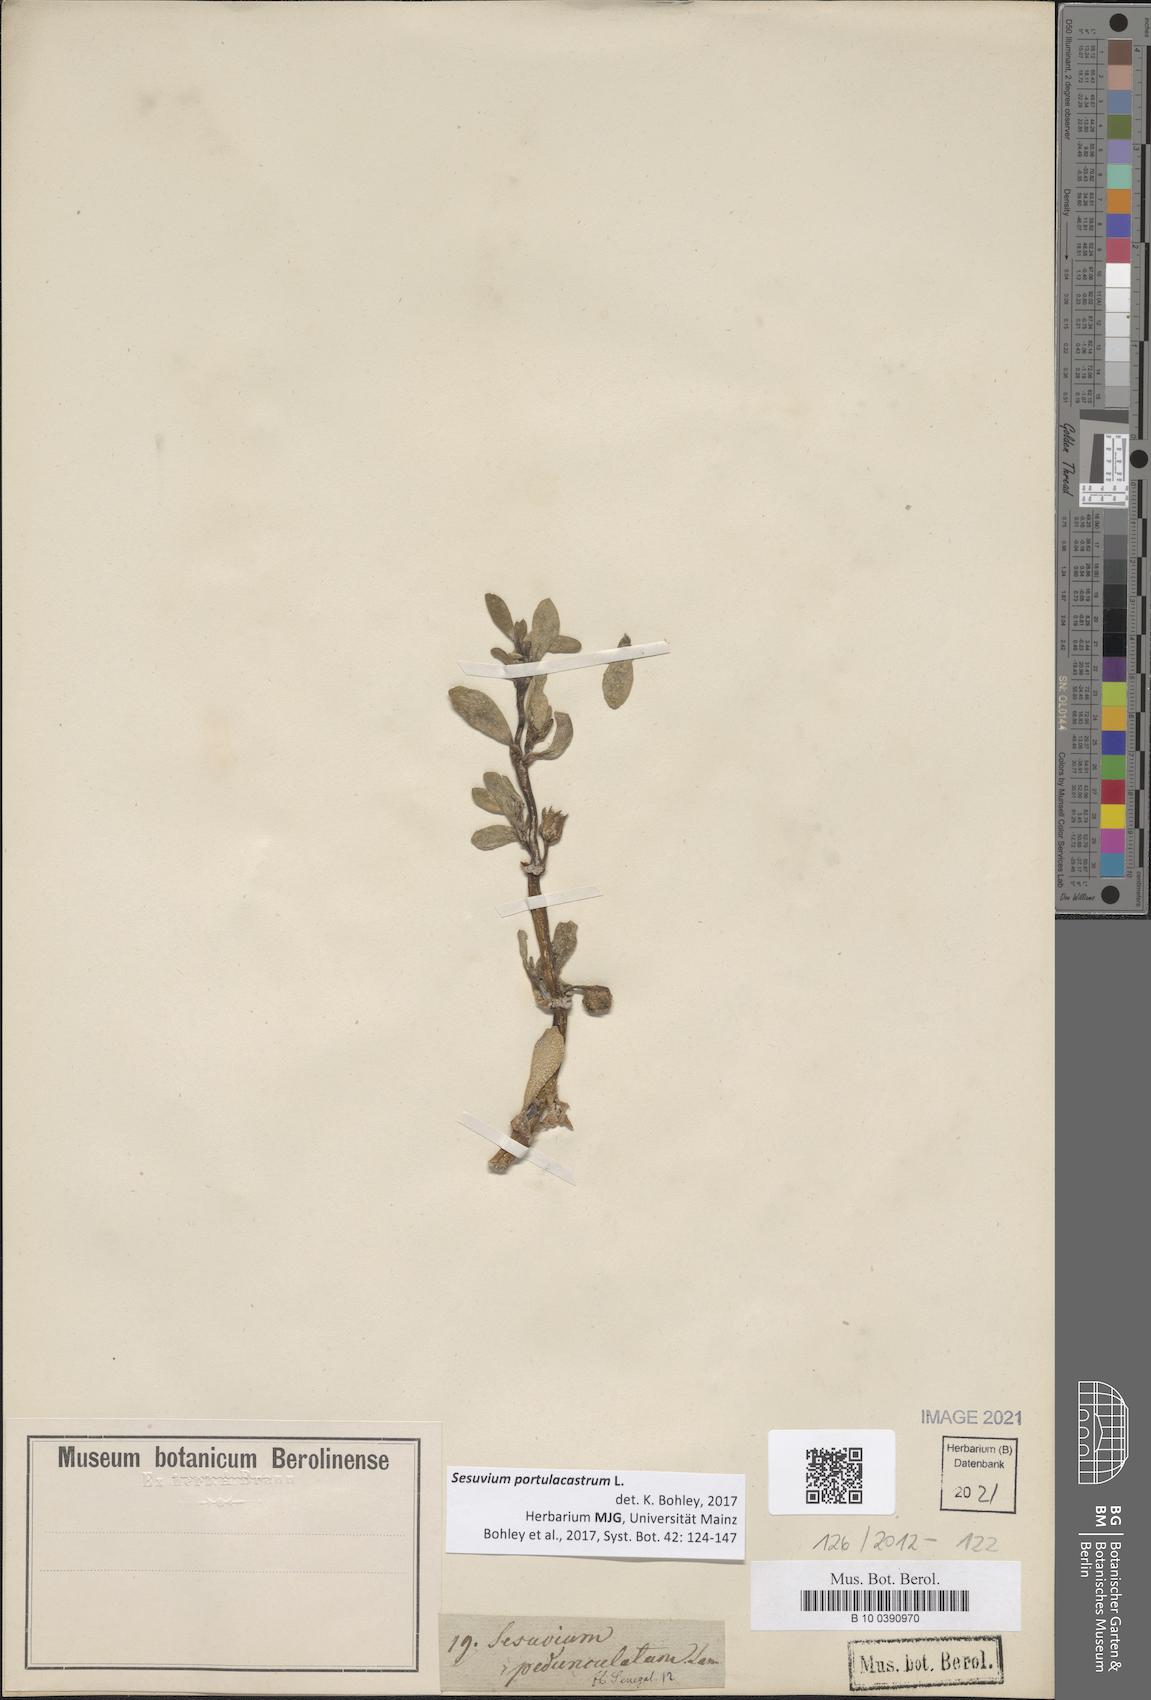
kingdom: Plantae
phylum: Tracheophyta
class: Magnoliopsida
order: Caryophyllales
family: Aizoaceae
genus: Sesuvium
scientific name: Sesuvium portulacastrum
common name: Sea-purslane
